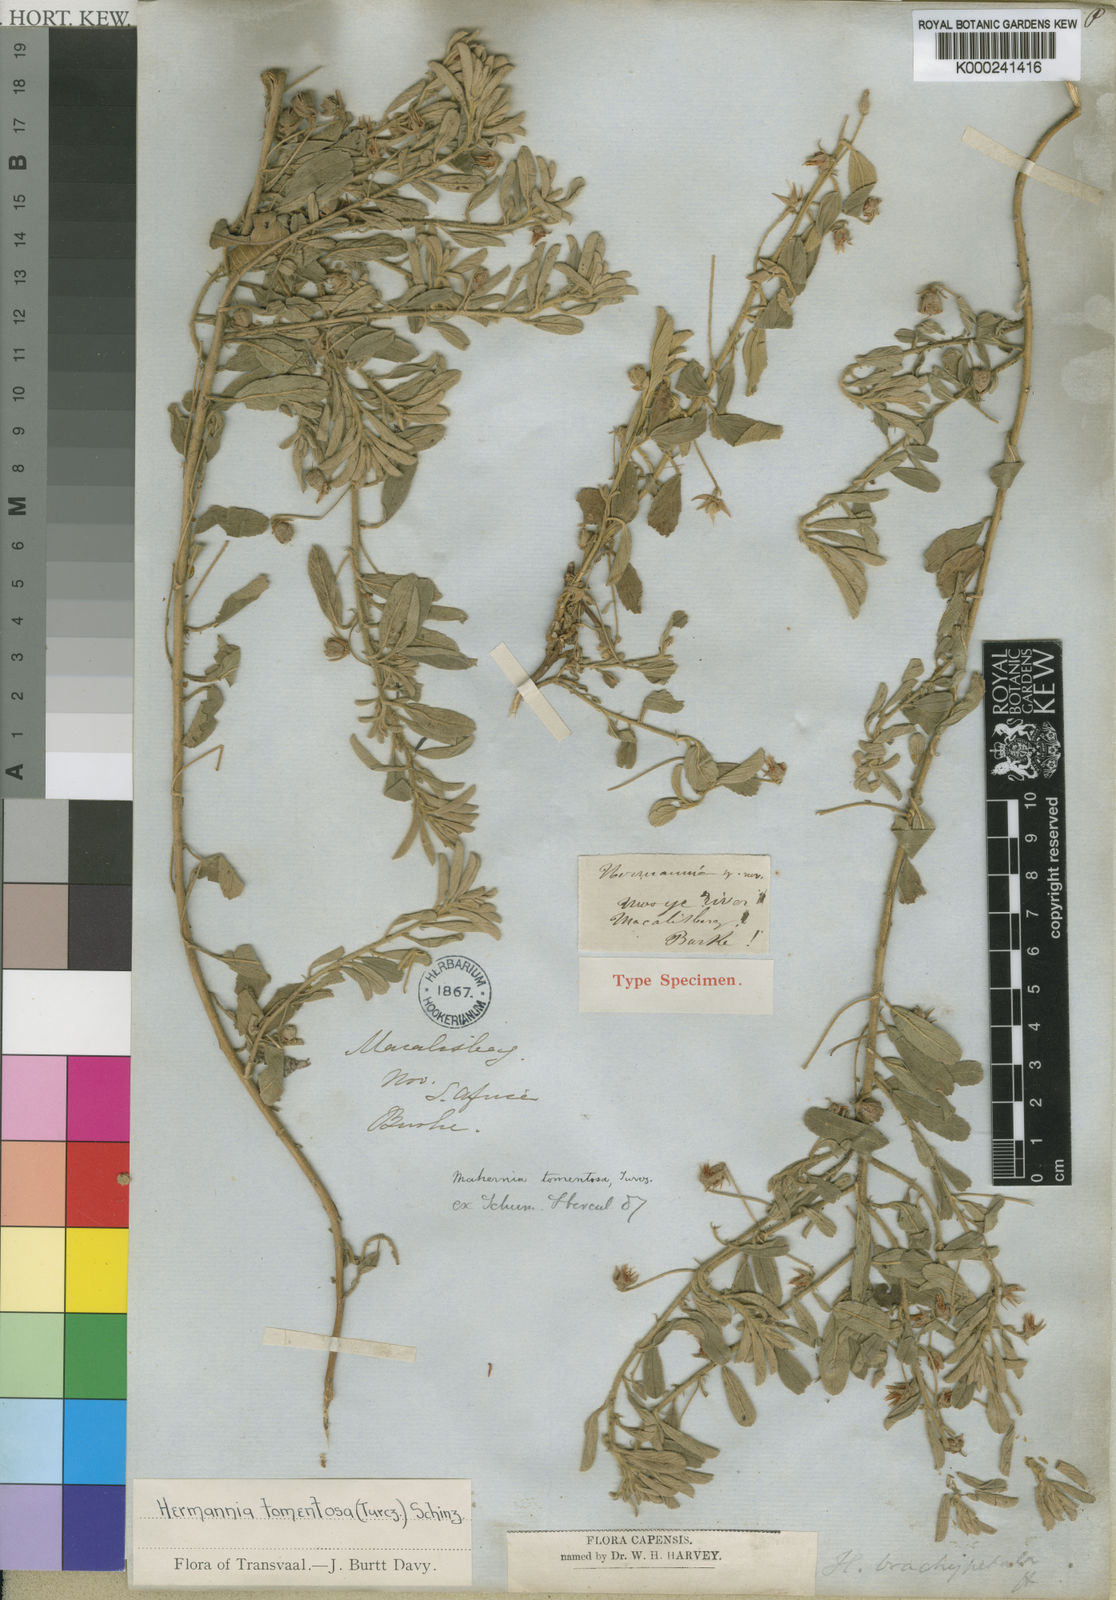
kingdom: Plantae
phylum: Tracheophyta
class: Magnoliopsida
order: Malvales
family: Malvaceae
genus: Hermannia
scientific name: Hermannia tomentosa
